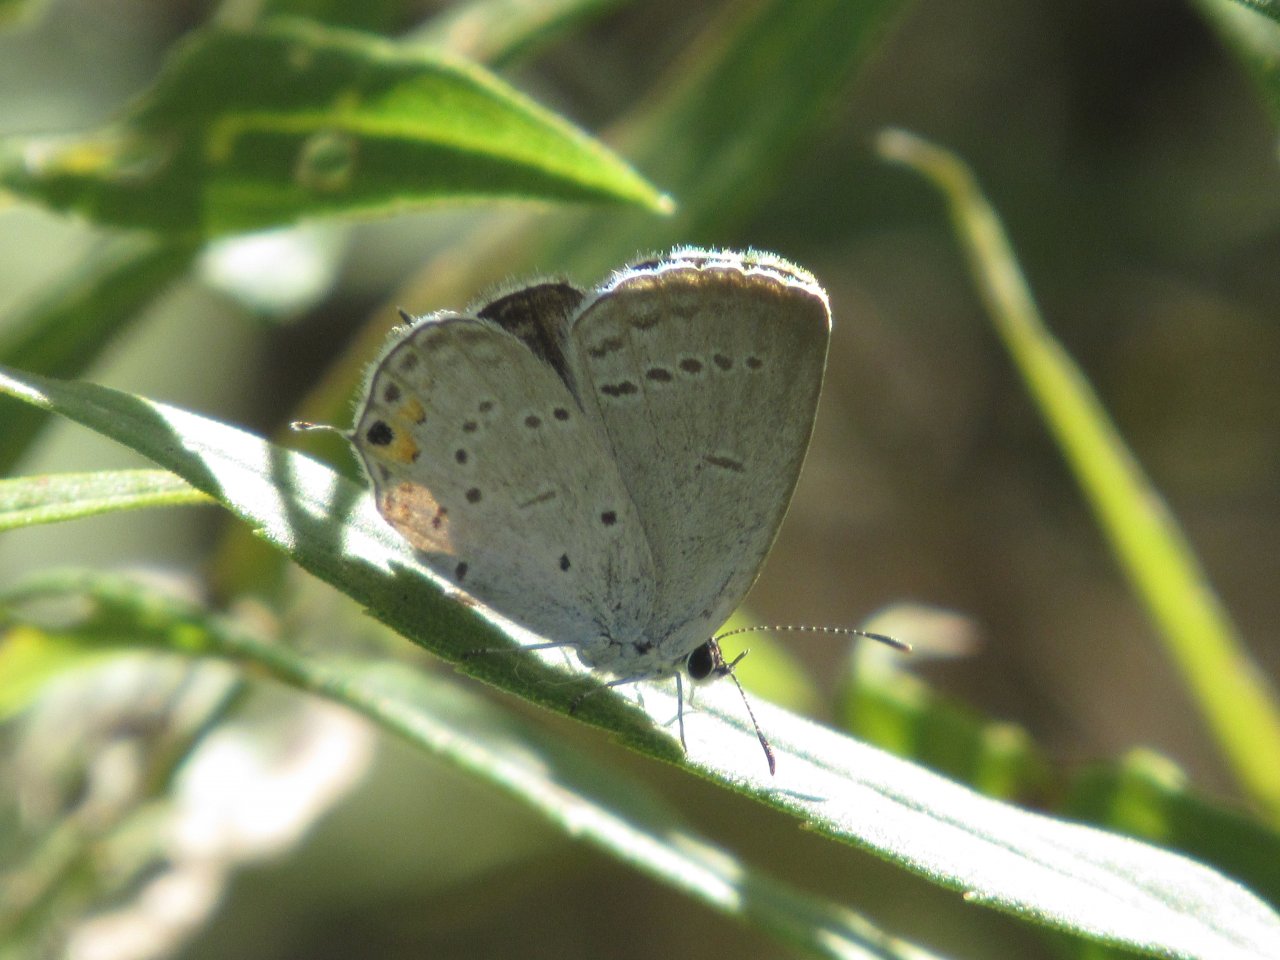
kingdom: Animalia
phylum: Arthropoda
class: Insecta
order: Lepidoptera
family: Lycaenidae
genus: Elkalyce
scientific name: Elkalyce comyntas
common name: Eastern Tailed-Blue
